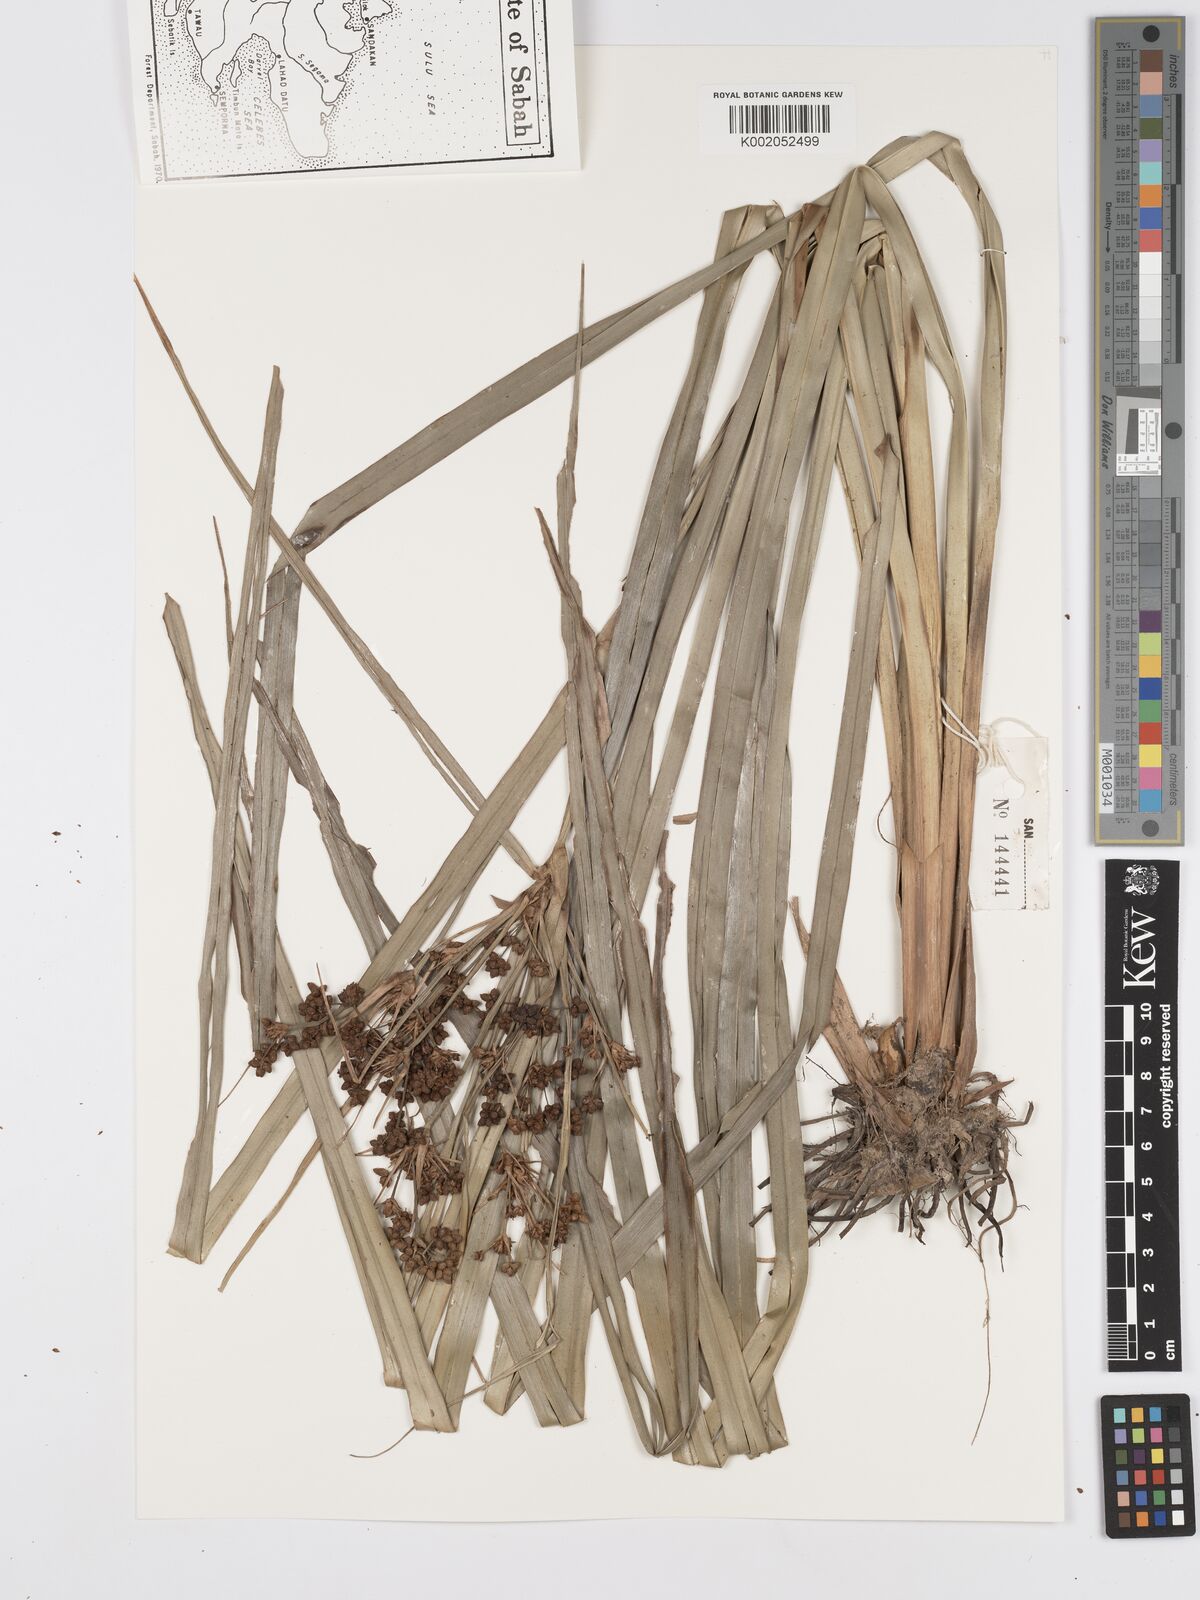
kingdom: Plantae
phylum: Tracheophyta
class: Liliopsida
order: Poales
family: Cyperaceae
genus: Scirpus
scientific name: Scirpus ternatanus
